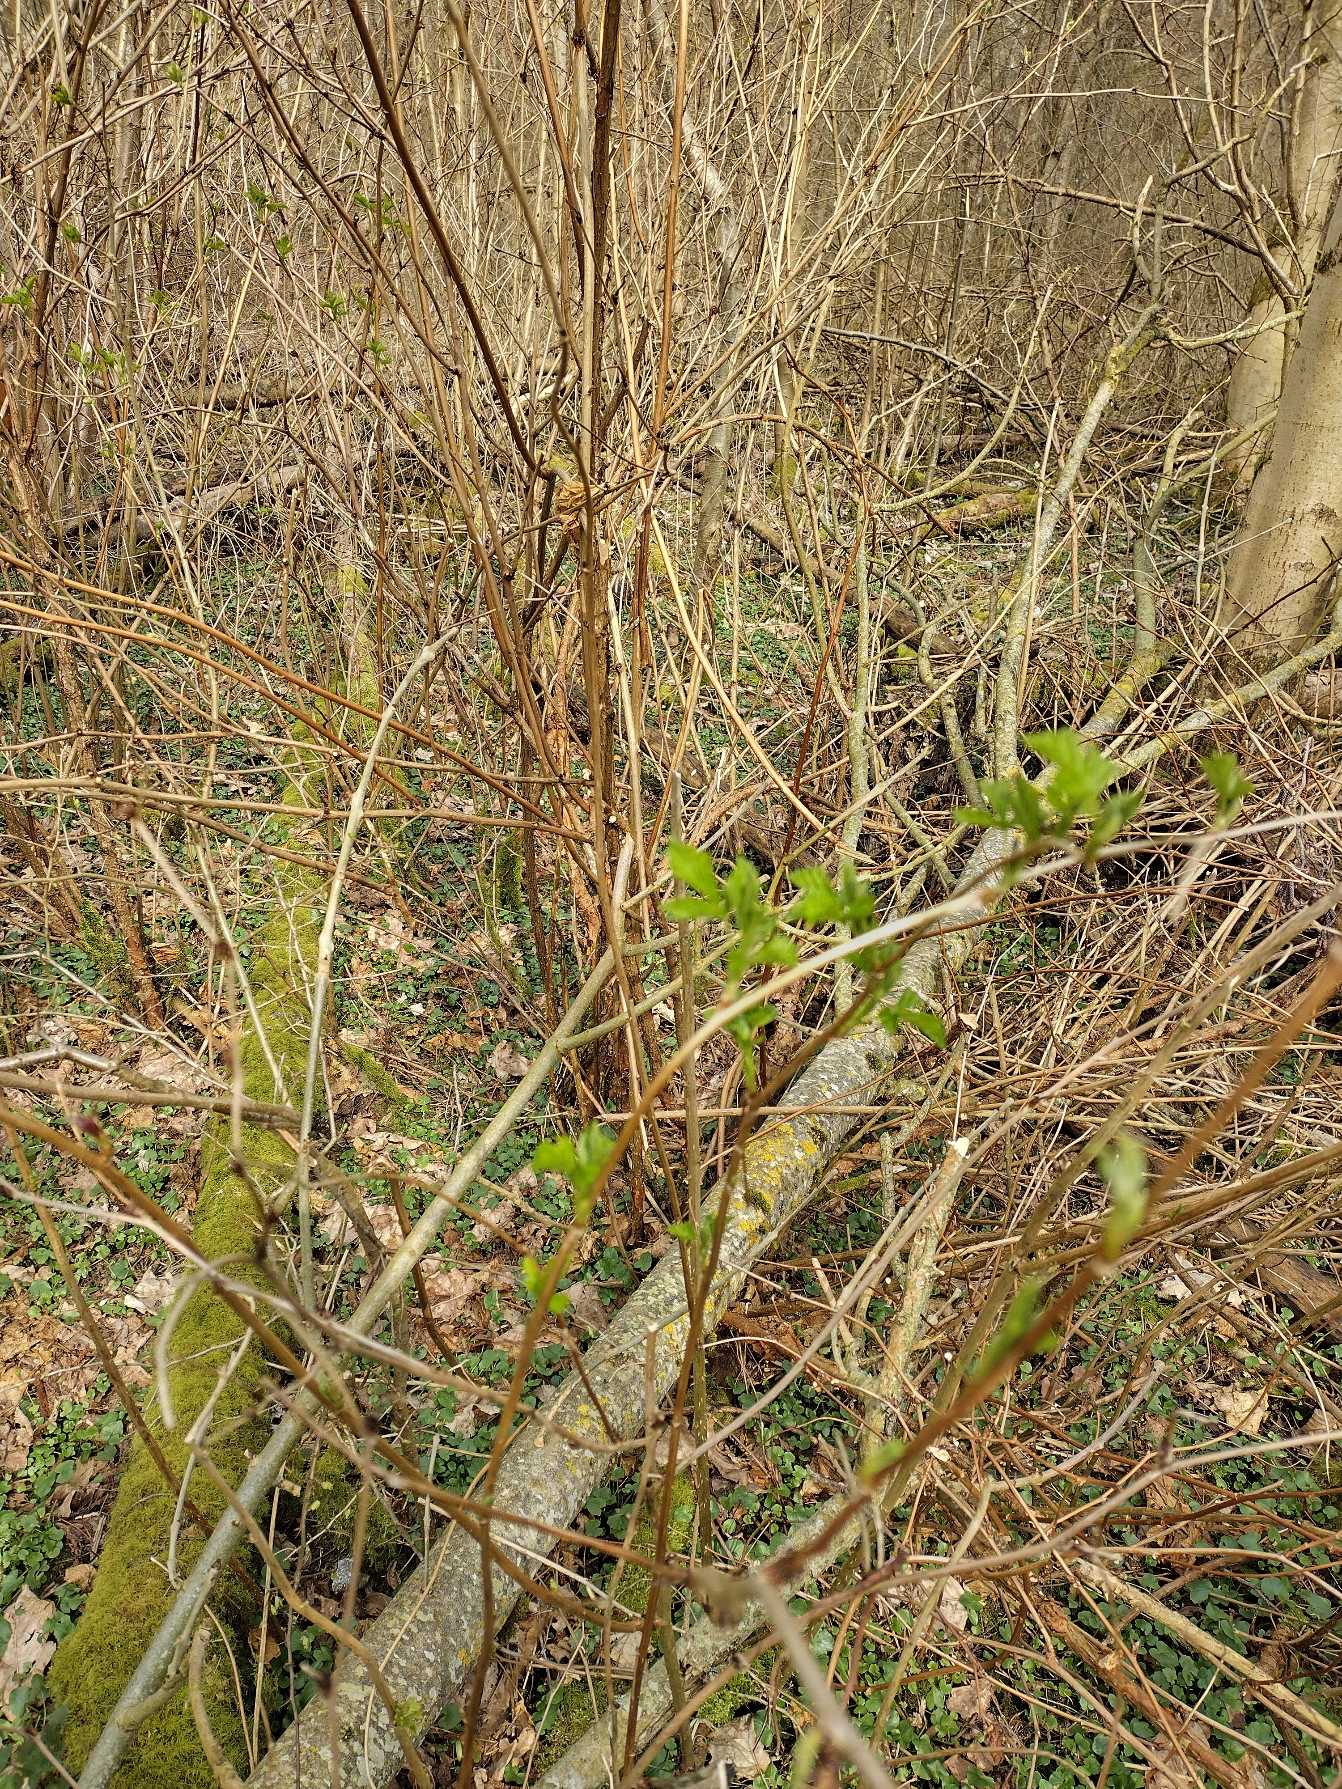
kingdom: Plantae
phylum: Tracheophyta
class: Magnoliopsida
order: Rosales
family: Rosaceae
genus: Rubus
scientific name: Rubus spectabilis
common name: Laksebær
